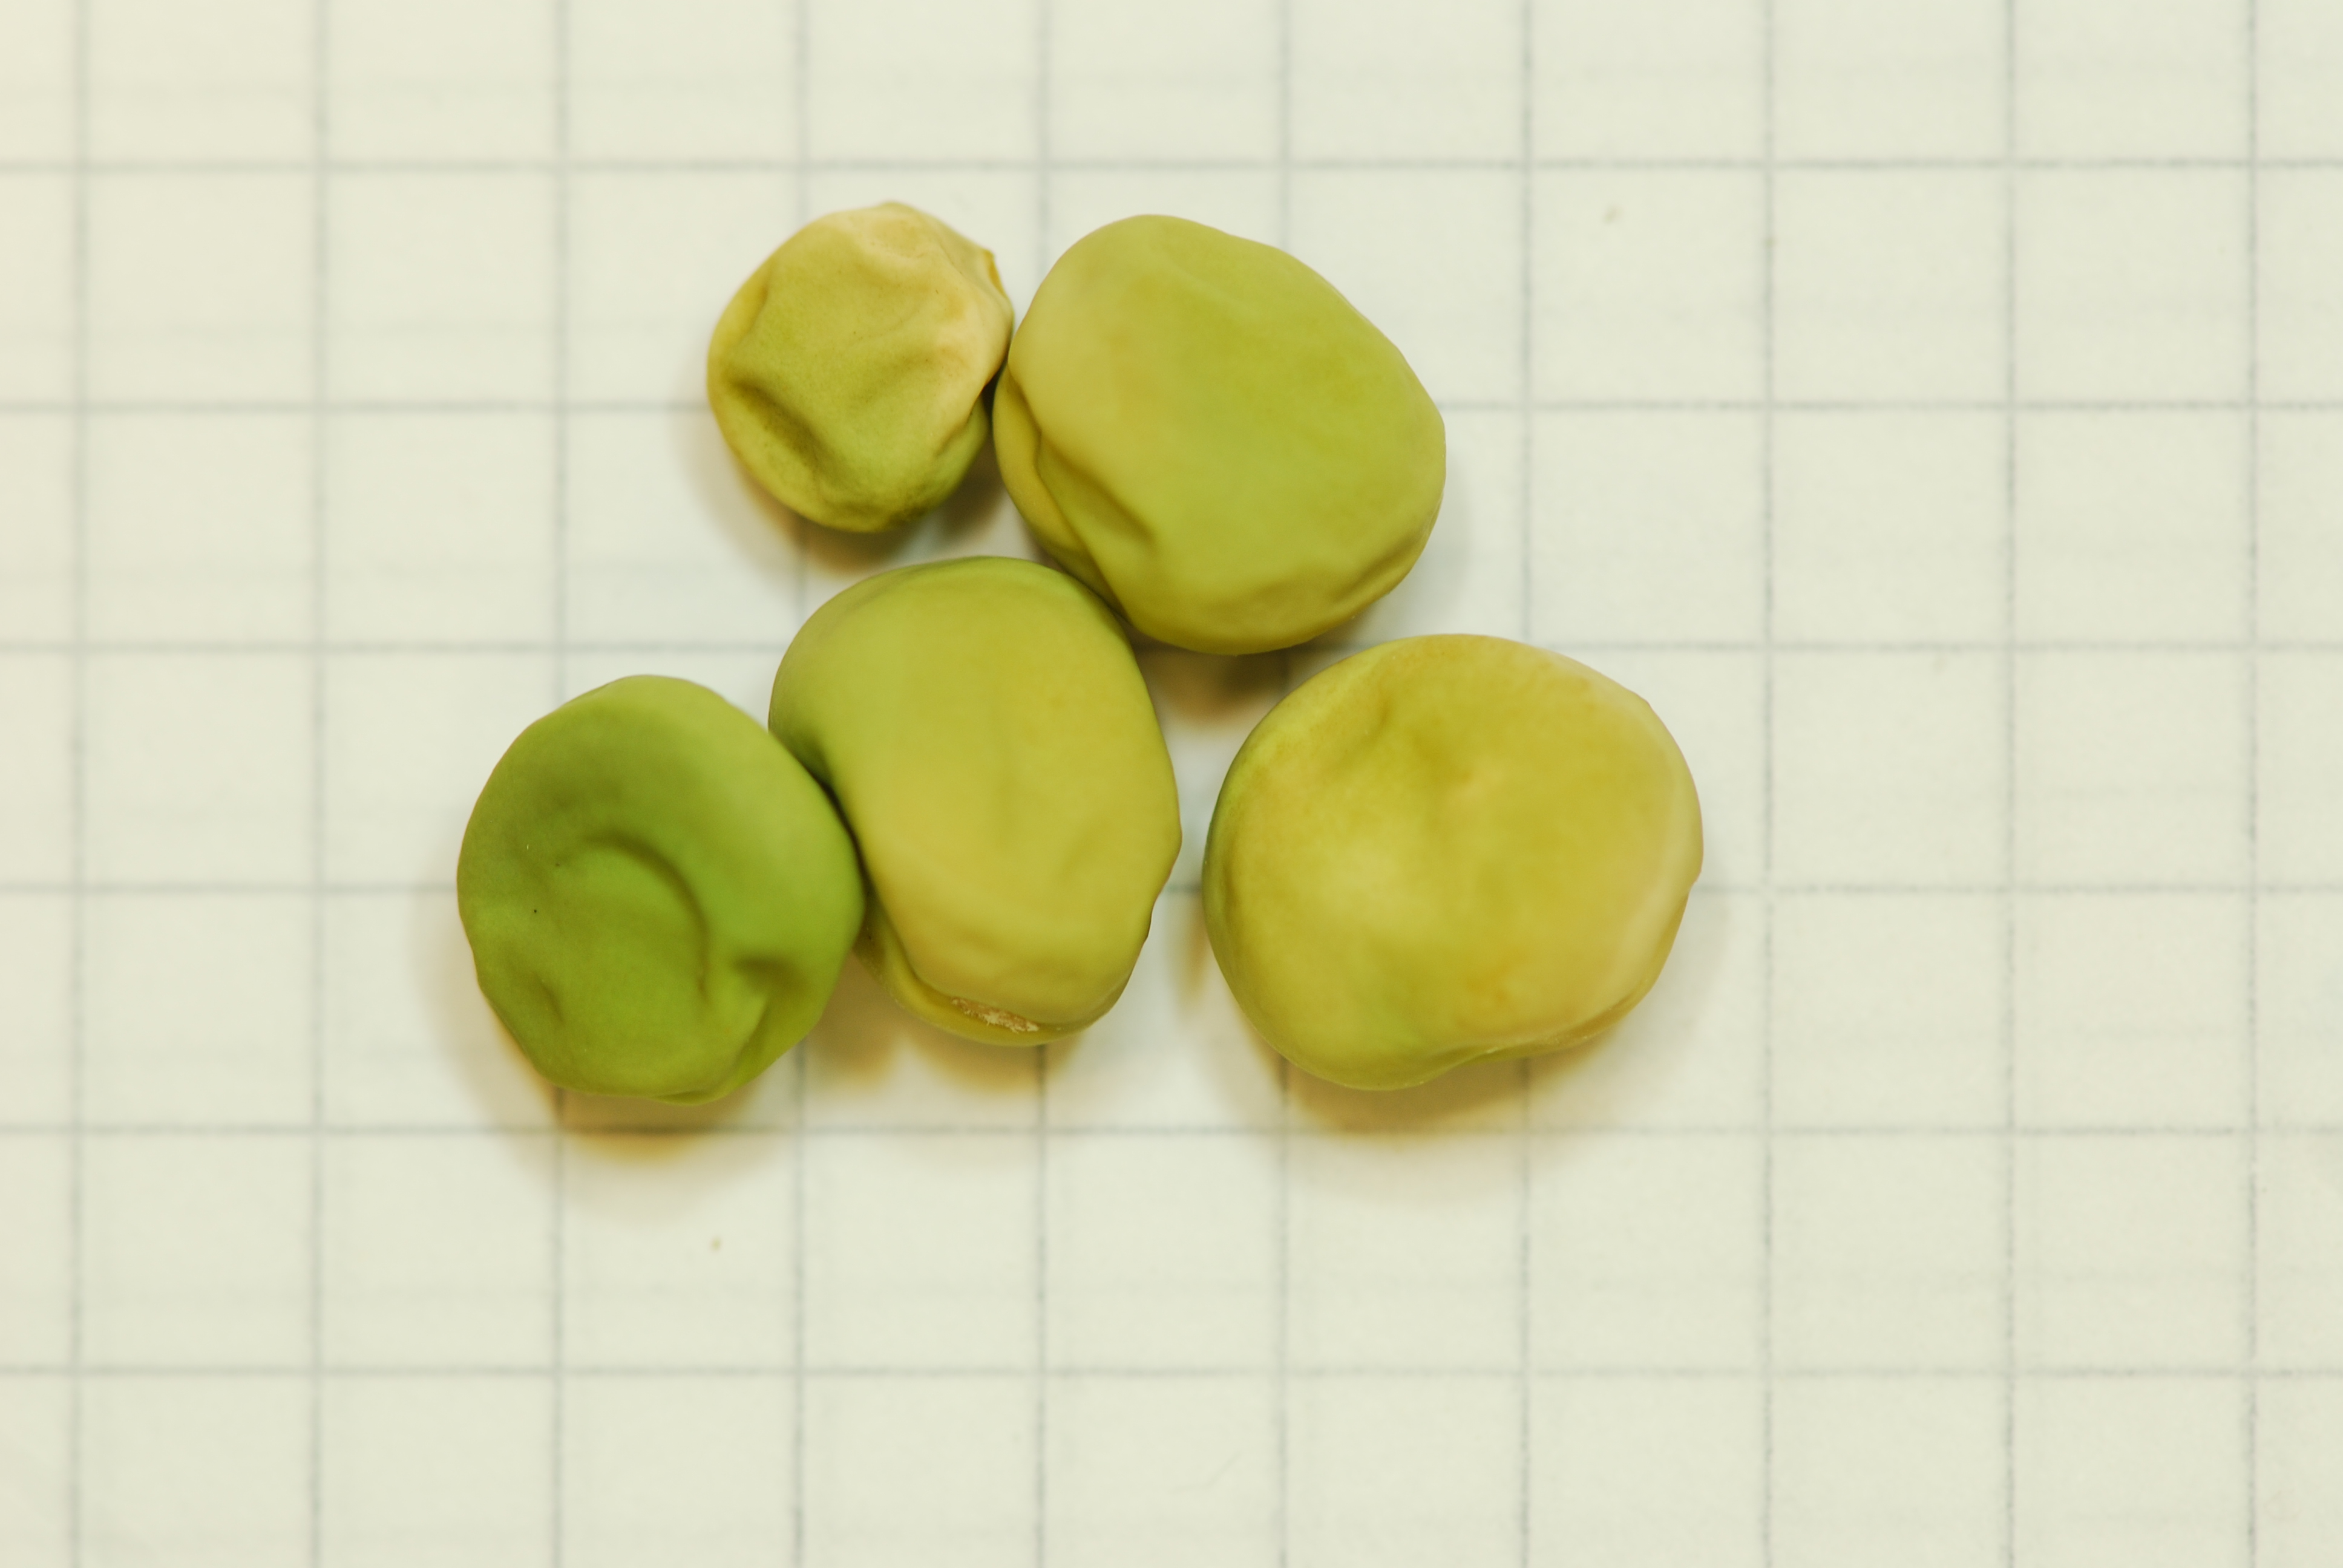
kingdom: Plantae
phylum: Tracheophyta
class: Magnoliopsida
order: Fabales
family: Fabaceae
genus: Lathyrus
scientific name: Lathyrus oleraceus
